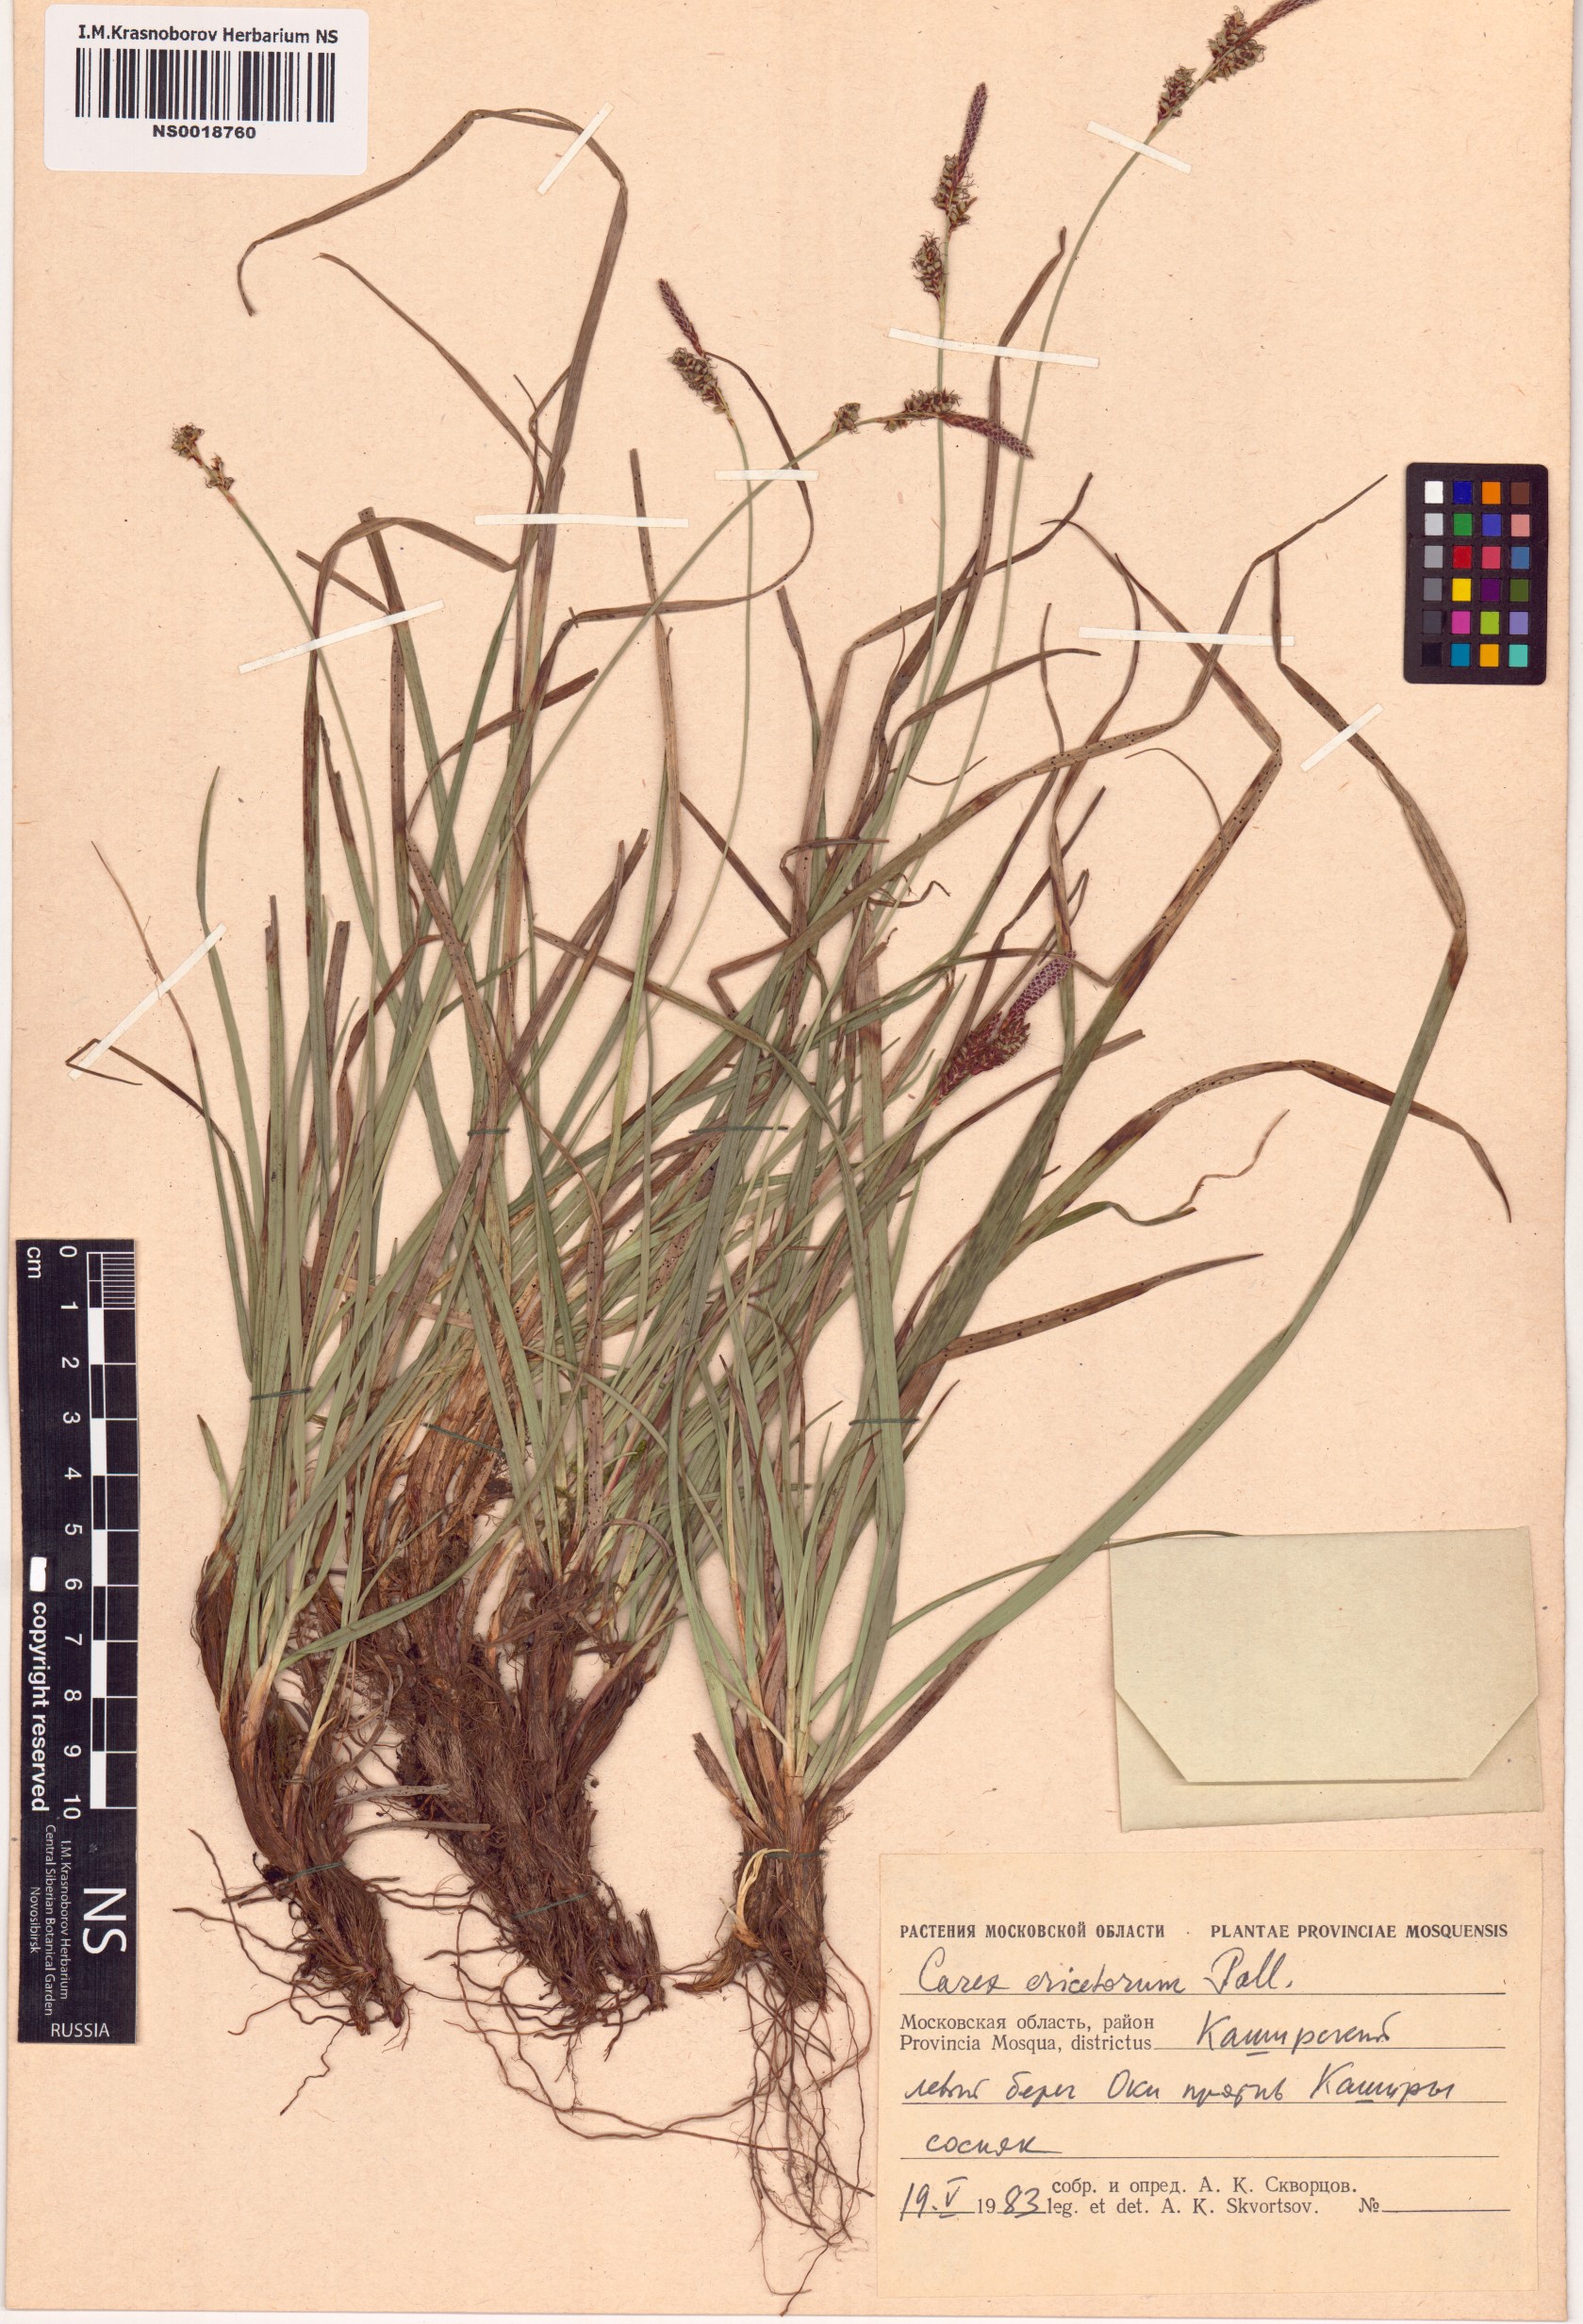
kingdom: Plantae
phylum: Tracheophyta
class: Liliopsida
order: Poales
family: Cyperaceae
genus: Carex
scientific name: Carex ericetorum
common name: Rare spring-sedge
